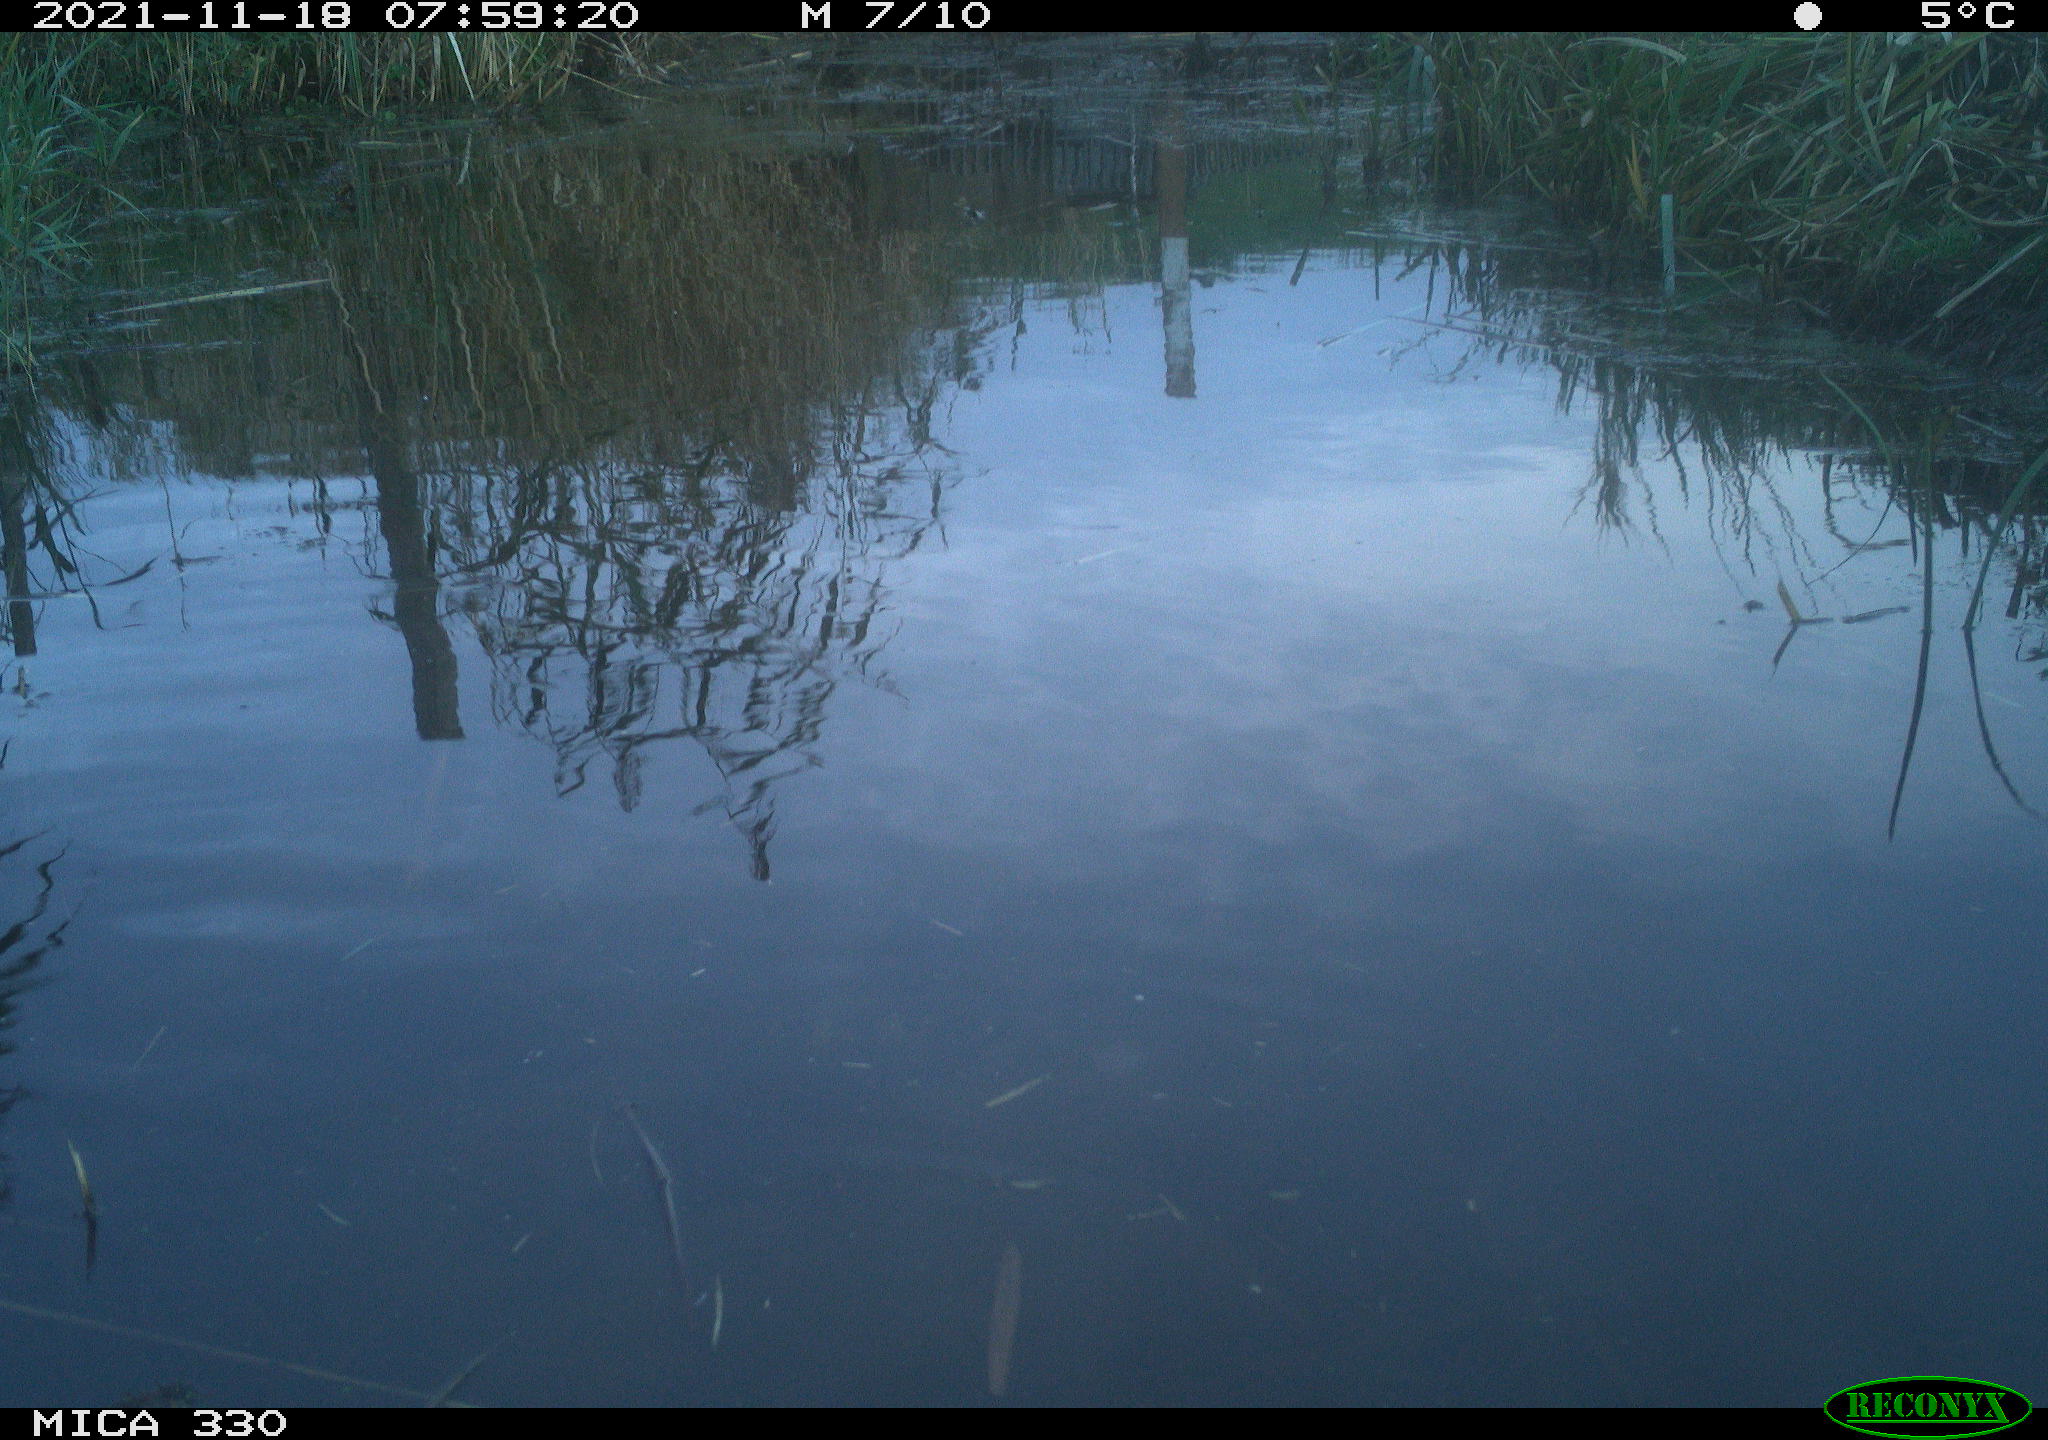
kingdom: Animalia
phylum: Chordata
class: Aves
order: Gruiformes
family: Rallidae
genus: Gallinula
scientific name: Gallinula chloropus
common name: Common moorhen
